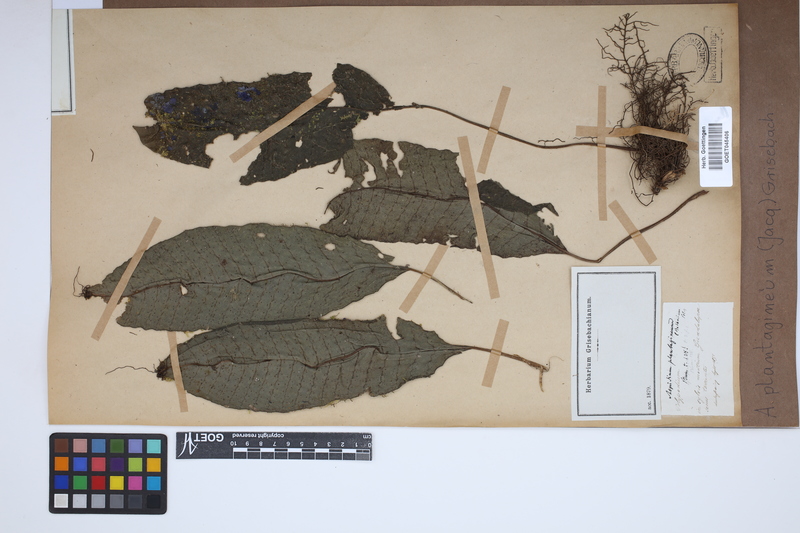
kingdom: Plantae
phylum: Tracheophyta
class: Polypodiopsida
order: Polypodiales
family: Lomariopsidaceae
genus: Dracoglossum
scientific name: Dracoglossum plantagineum
